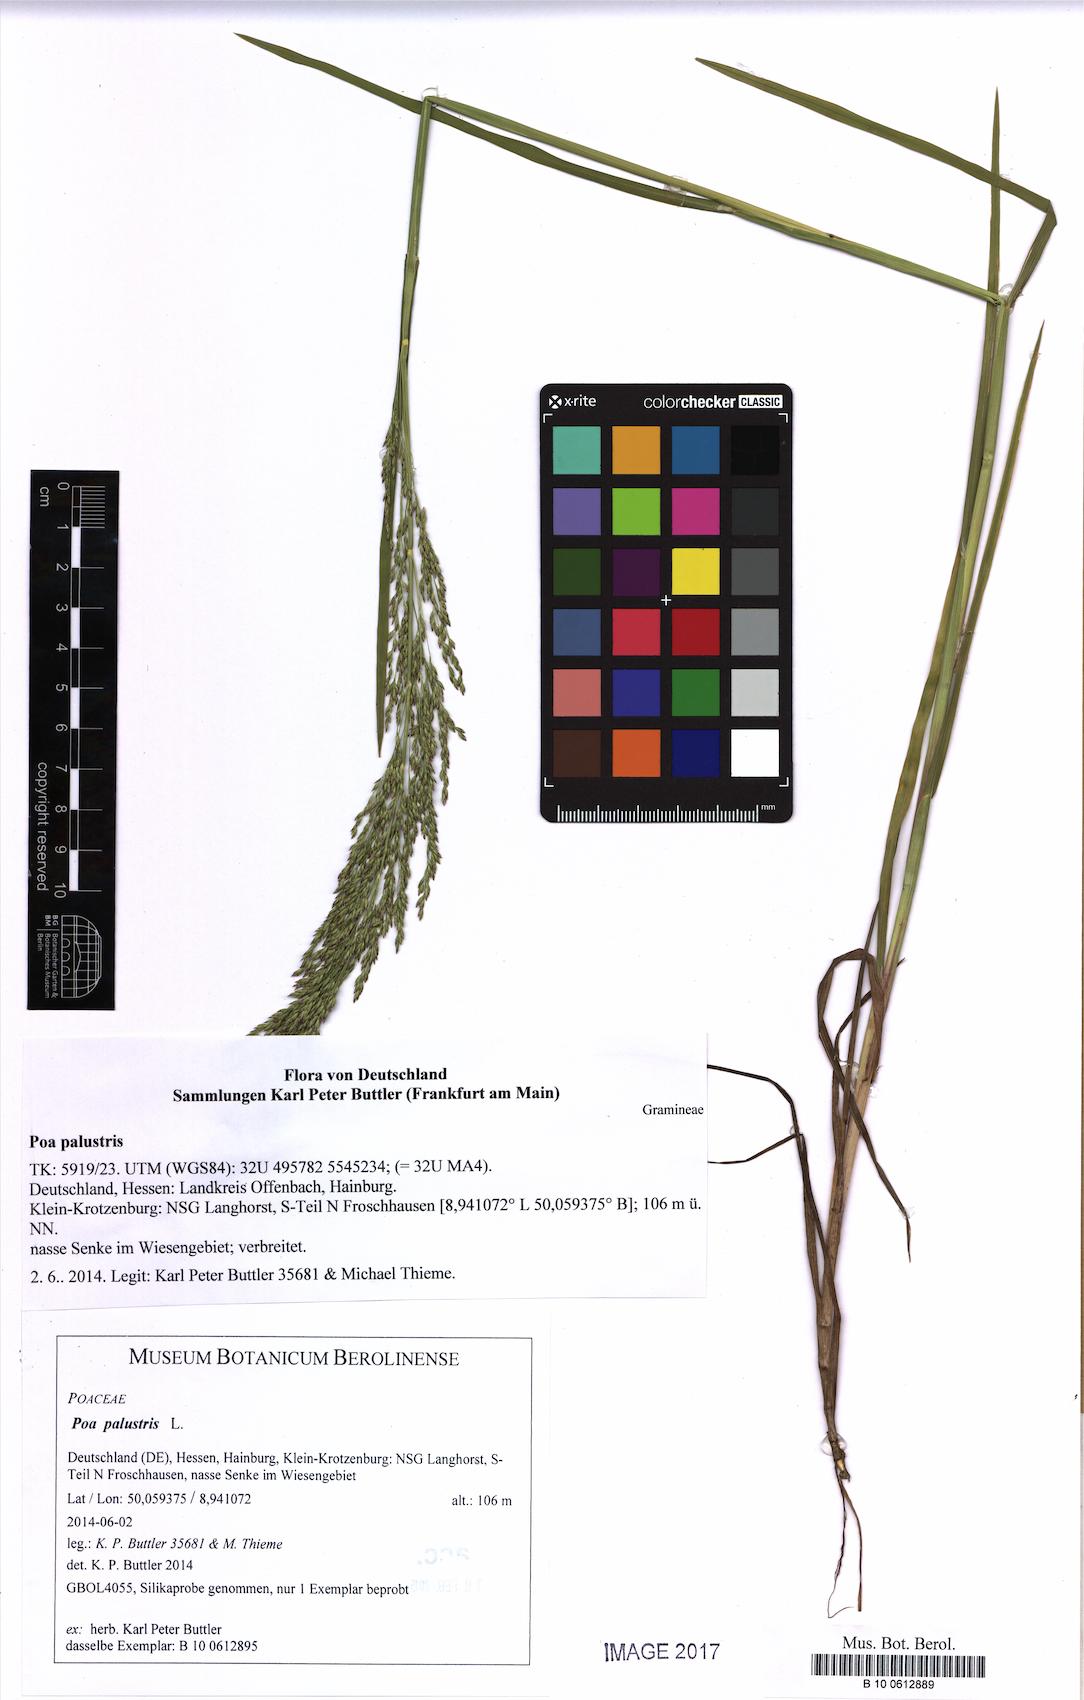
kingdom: Plantae
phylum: Tracheophyta
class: Liliopsida
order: Poales
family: Poaceae
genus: Poa
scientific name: Poa palustris
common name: Swamp meadow-grass
